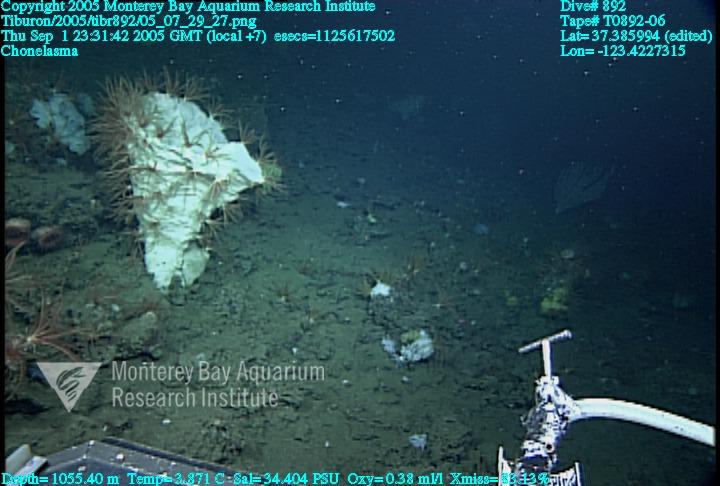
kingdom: Animalia
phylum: Porifera
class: Hexactinellida
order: Sceptrulophora
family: Euretidae
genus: Chonelasma
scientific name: Chonelasma
